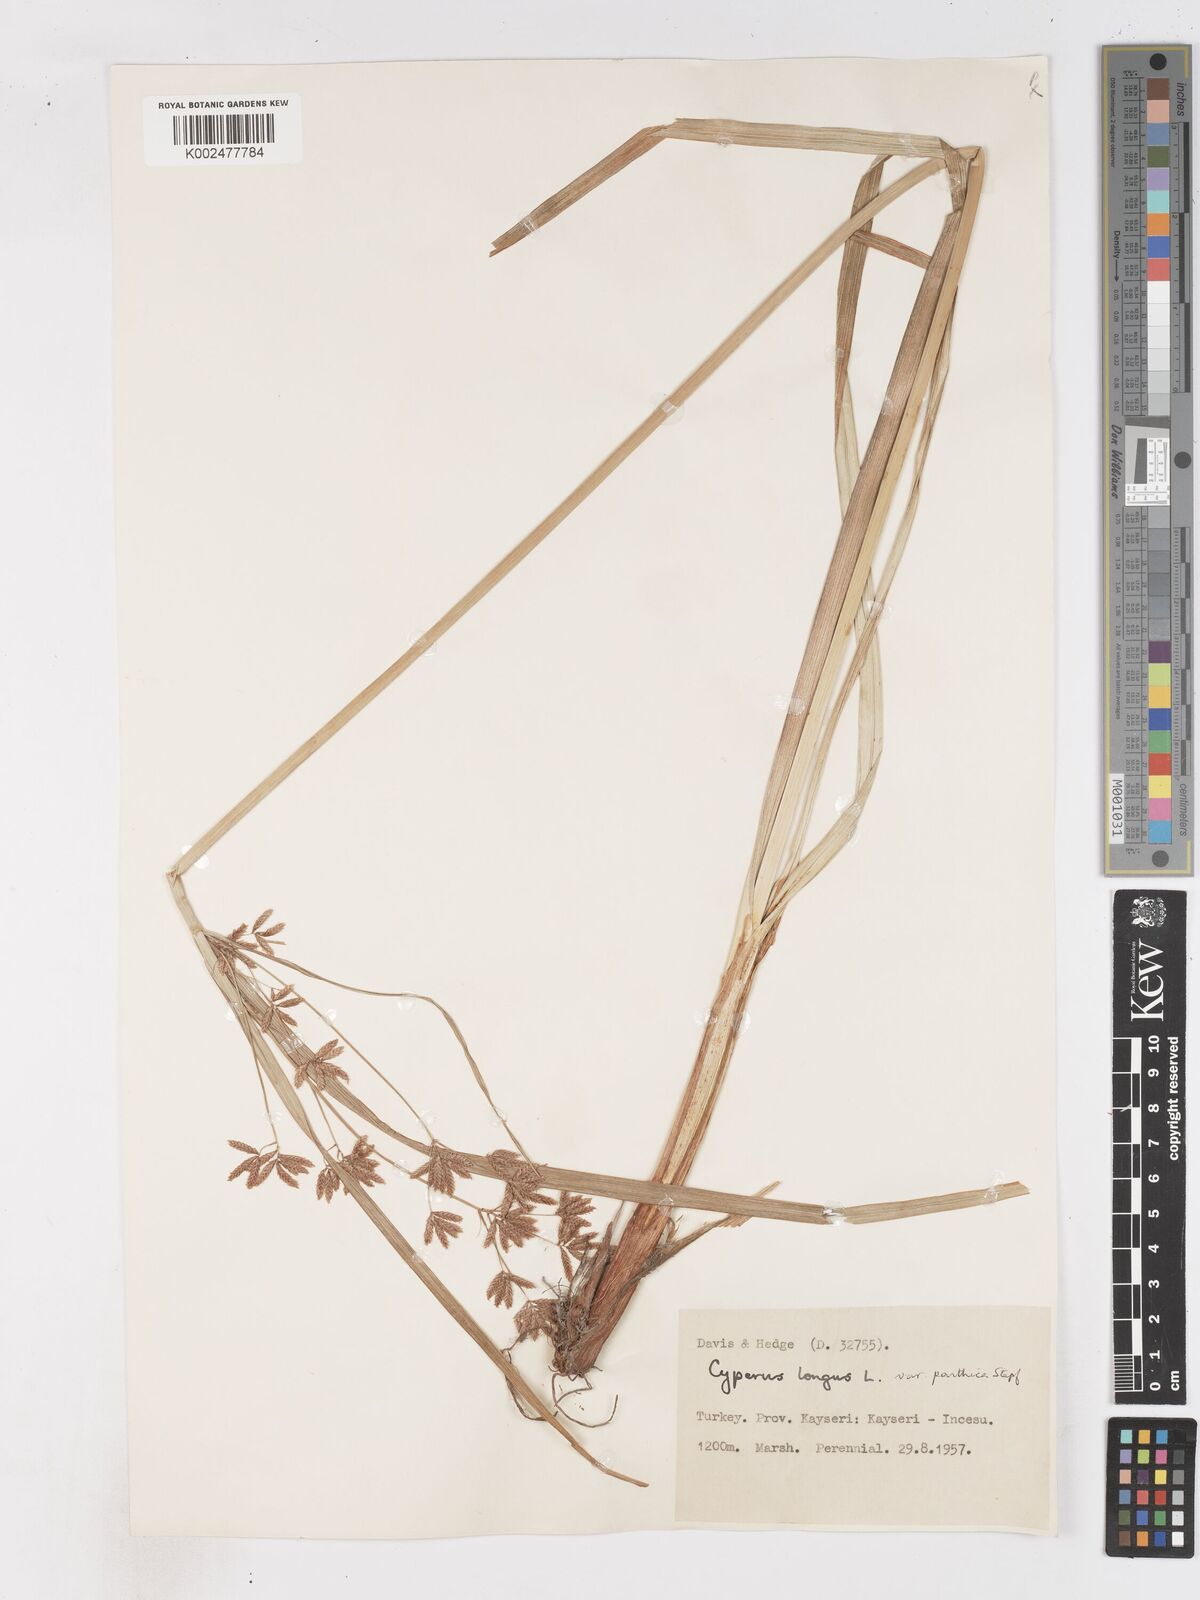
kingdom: Plantae
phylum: Tracheophyta
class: Liliopsida
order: Poales
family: Cyperaceae
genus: Cyperus
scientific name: Cyperus longus
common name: Galingale
